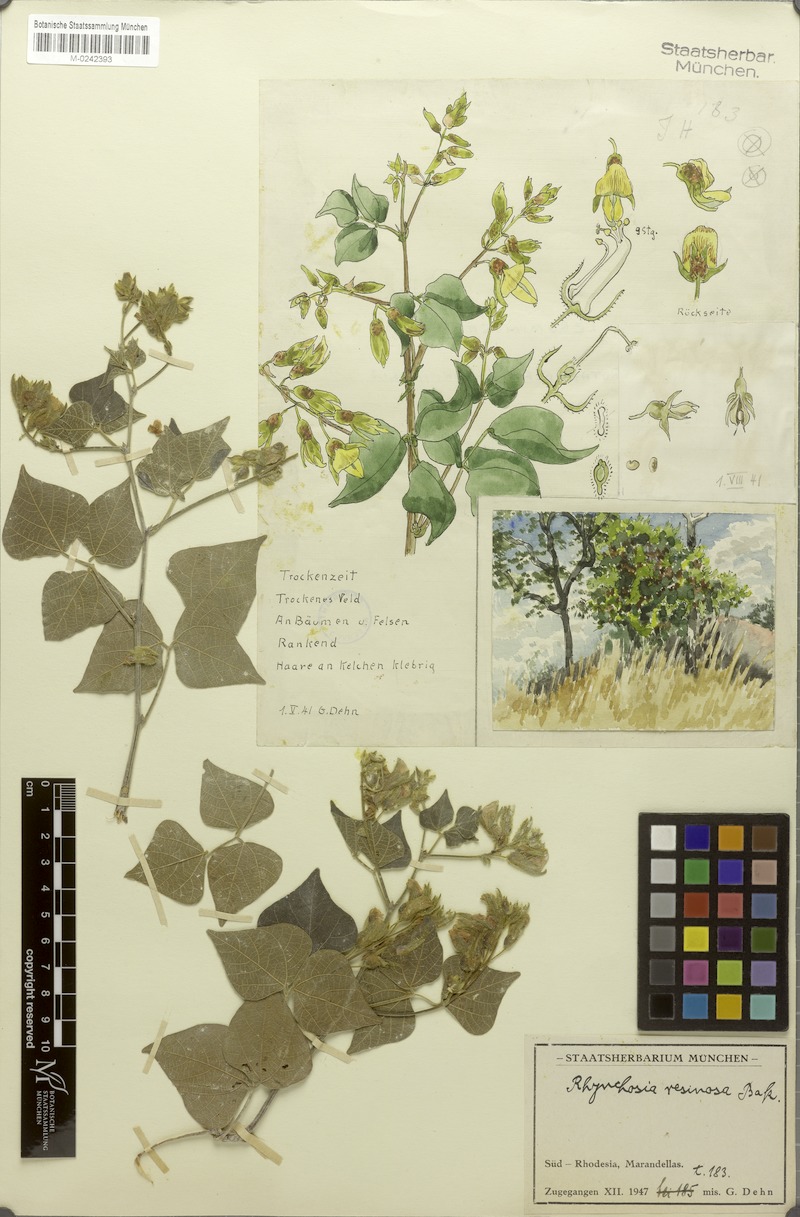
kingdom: Plantae
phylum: Tracheophyta
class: Magnoliopsida
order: Fabales
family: Fabaceae
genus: Rhynchosia
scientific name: Rhynchosia resinosa
